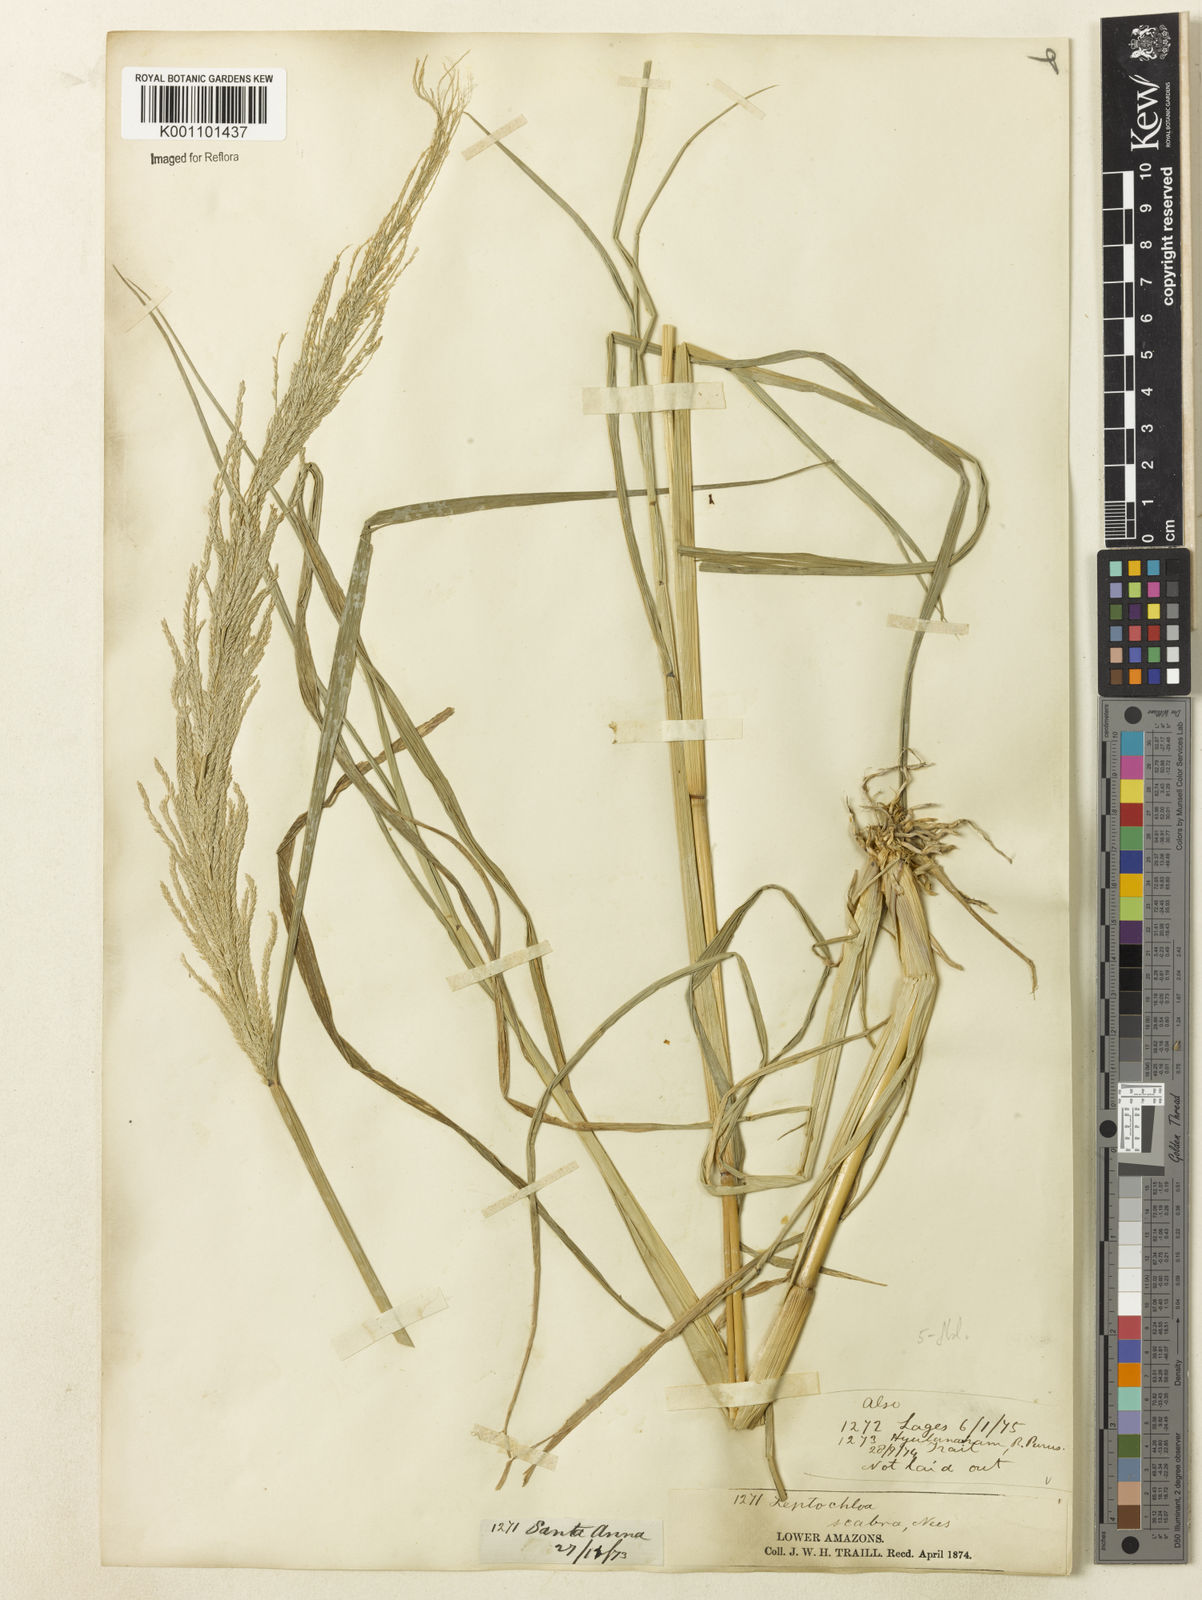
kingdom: Plantae
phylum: Tracheophyta
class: Liliopsida
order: Poales
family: Poaceae
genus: Leptochloa
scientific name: Leptochloa
